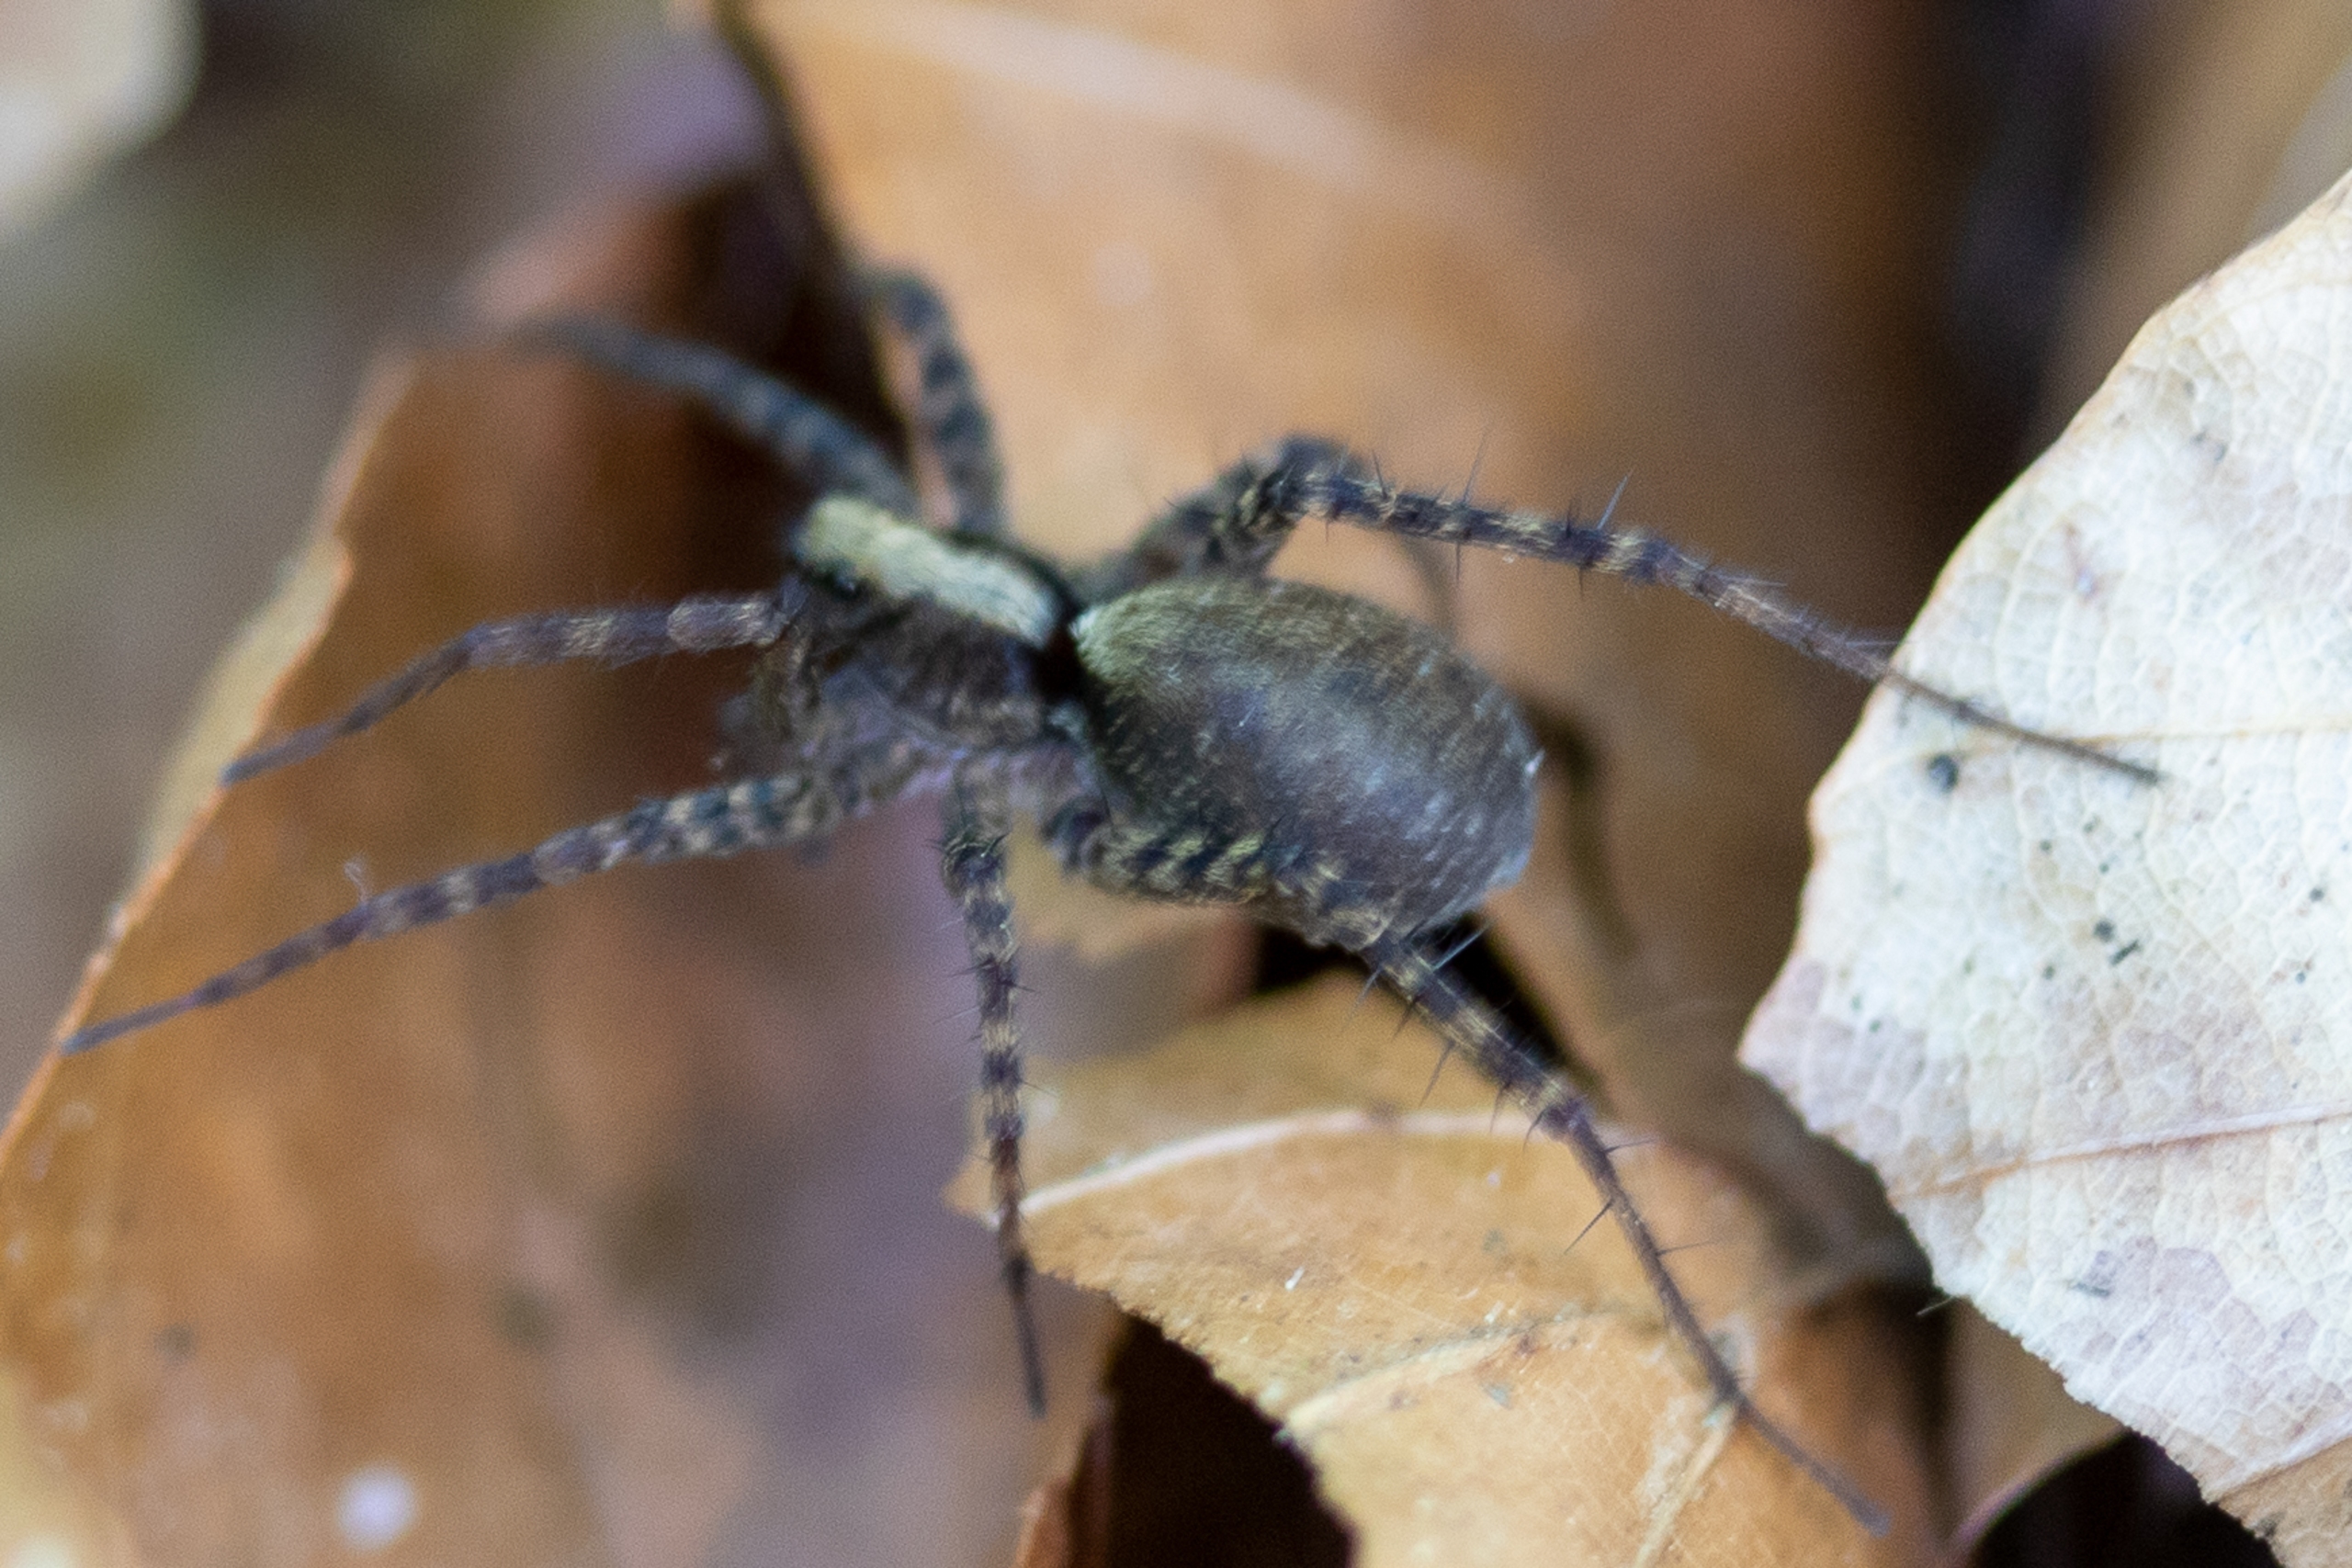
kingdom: Animalia
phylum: Arthropoda
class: Arachnida
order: Araneae
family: Lycosidae
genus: Pardosa
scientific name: Pardosa
